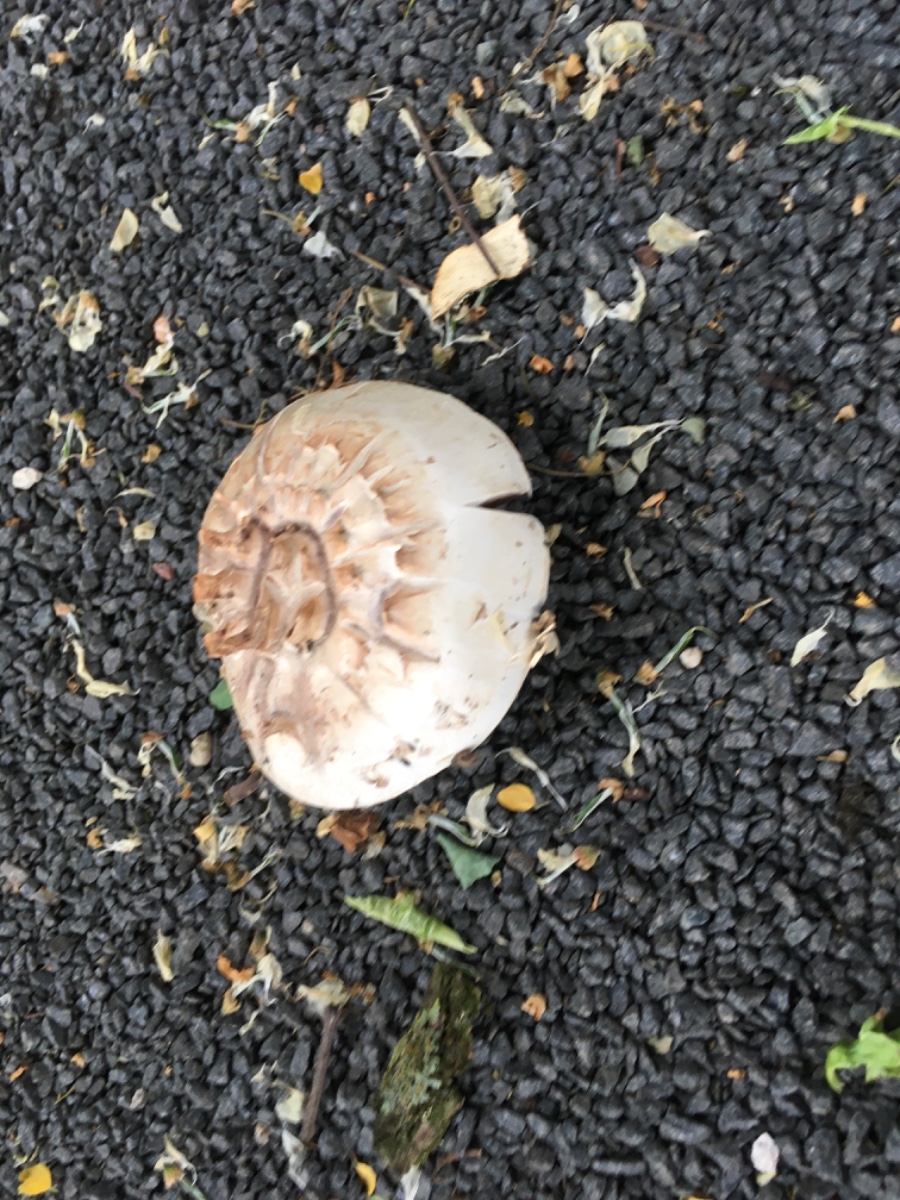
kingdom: Fungi
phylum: Basidiomycota
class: Agaricomycetes
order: Agaricales
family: Agaricaceae
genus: Agaricus
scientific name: Agaricus bernardii
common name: strandengs-champignon
